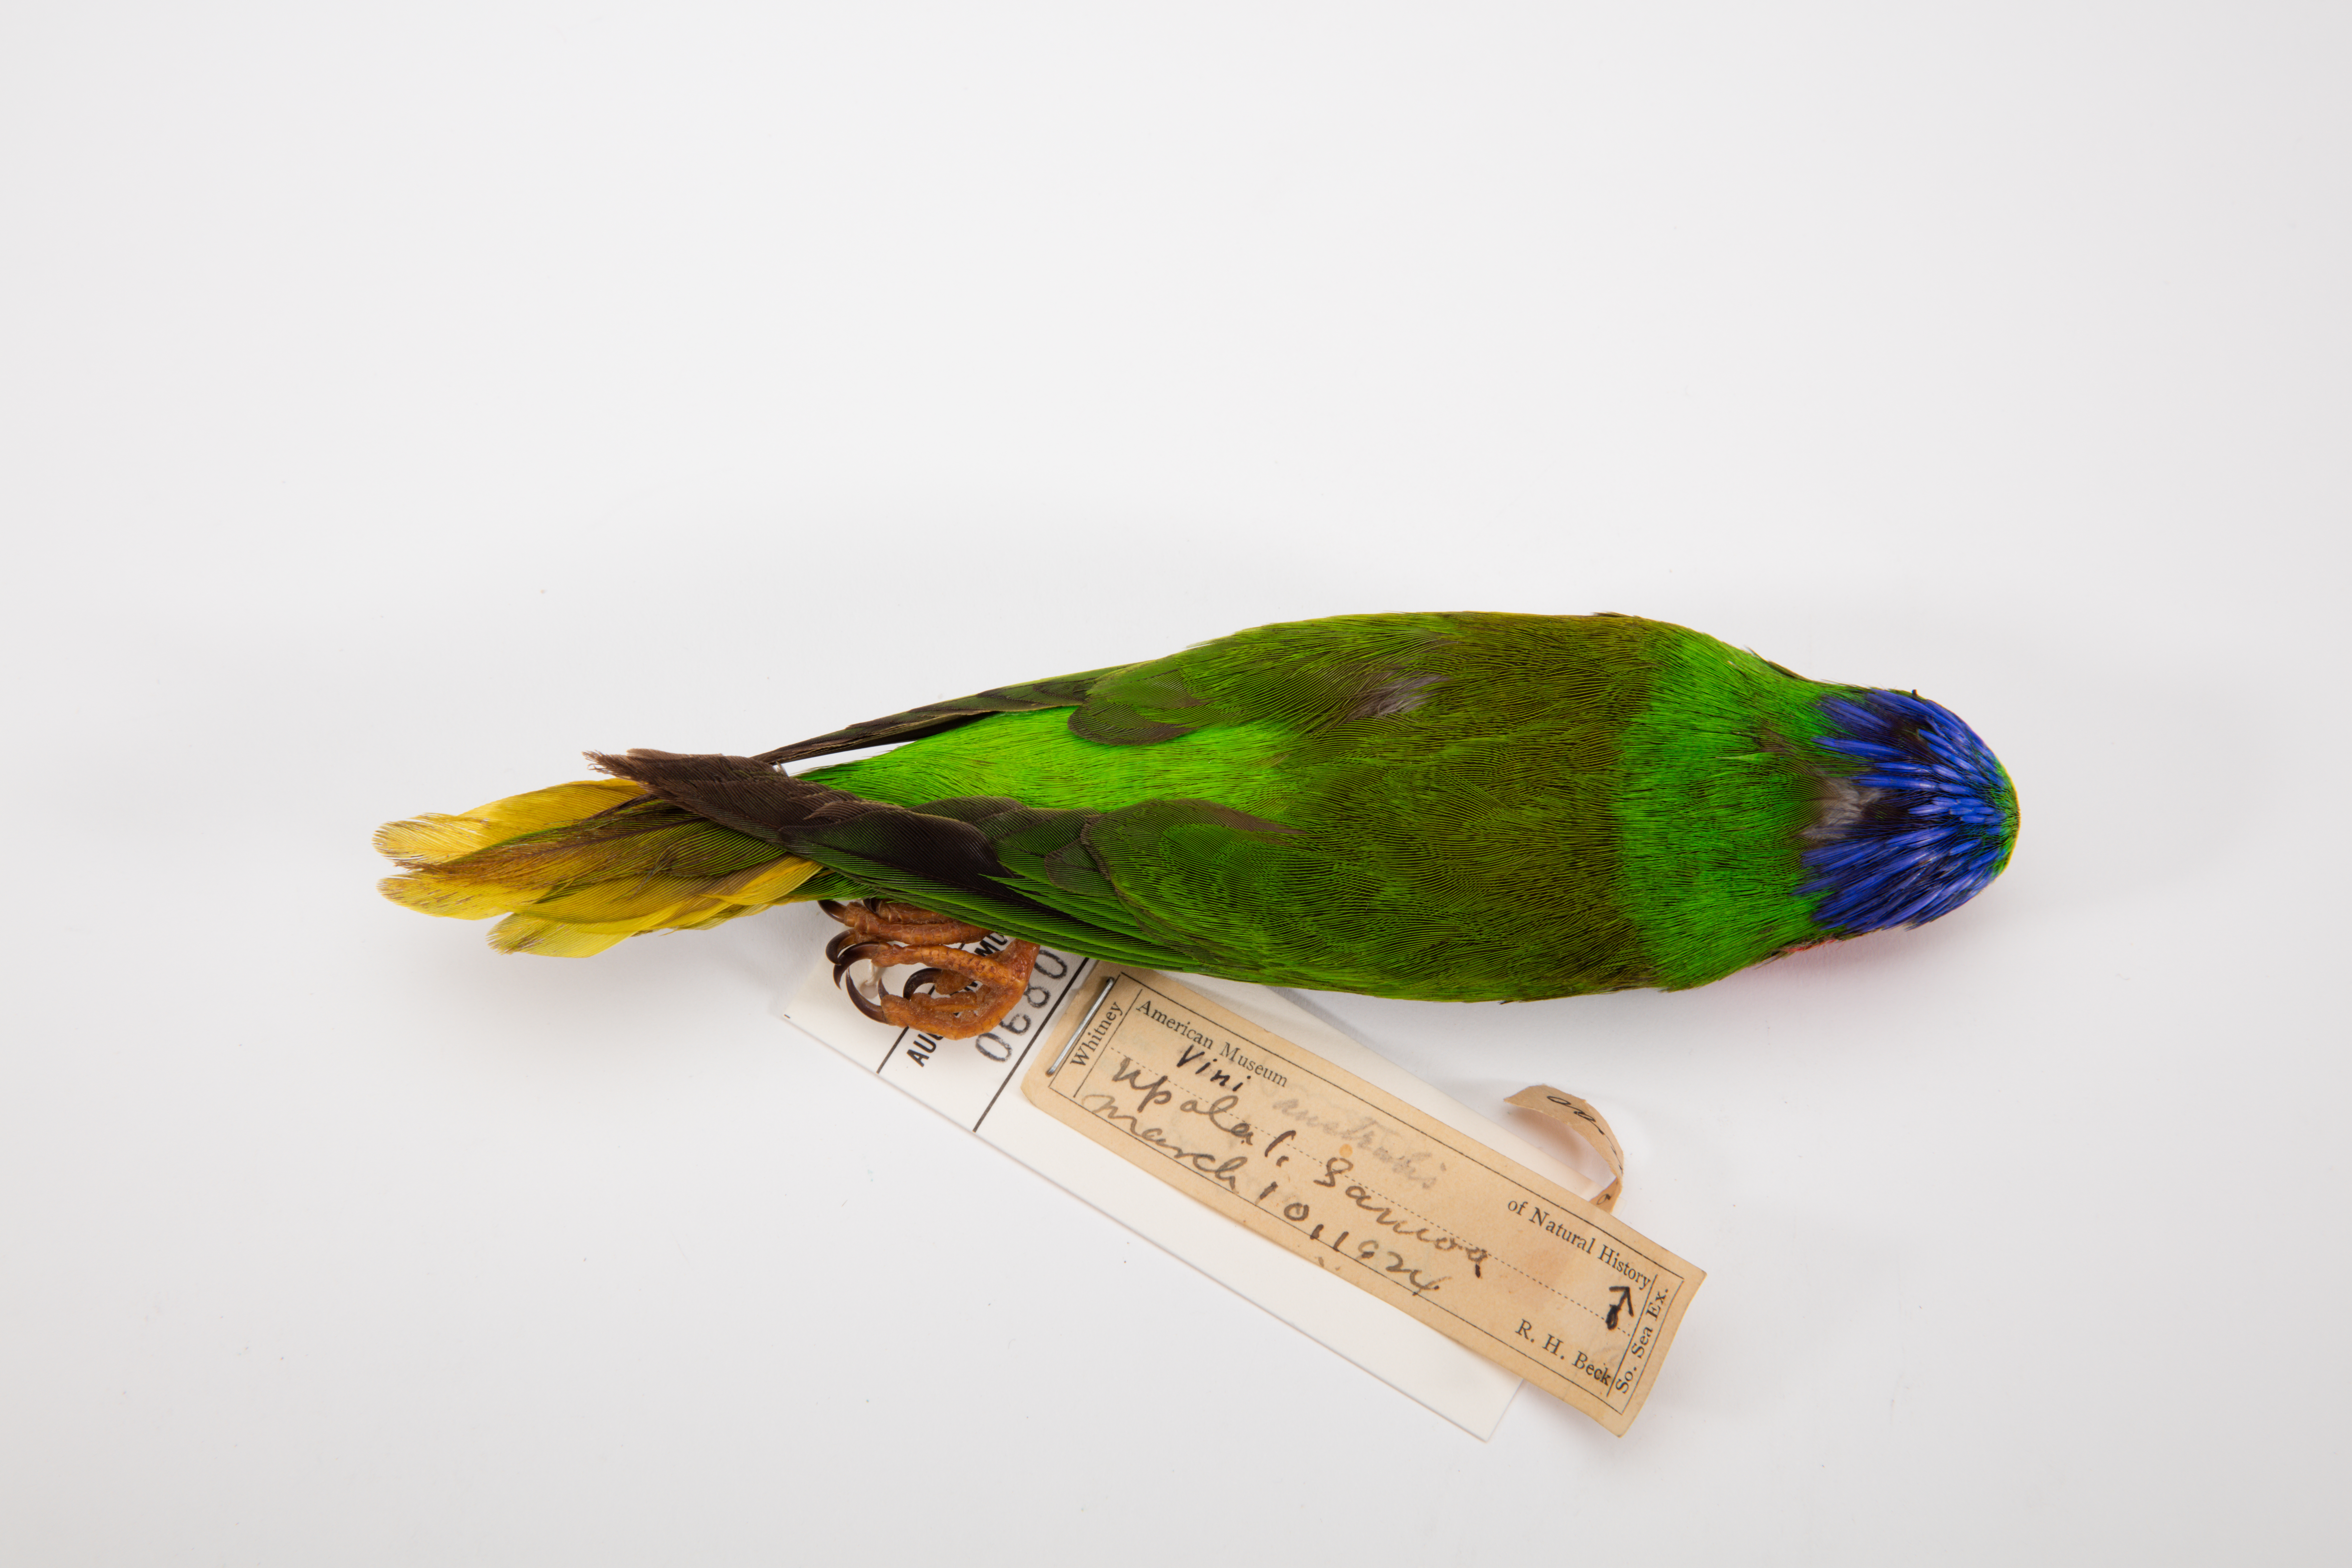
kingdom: Animalia
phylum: Chordata
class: Aves
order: Psittaciformes
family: Psittacidae
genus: Vini
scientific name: Vini australis
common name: Blue-crowned lorikeet
